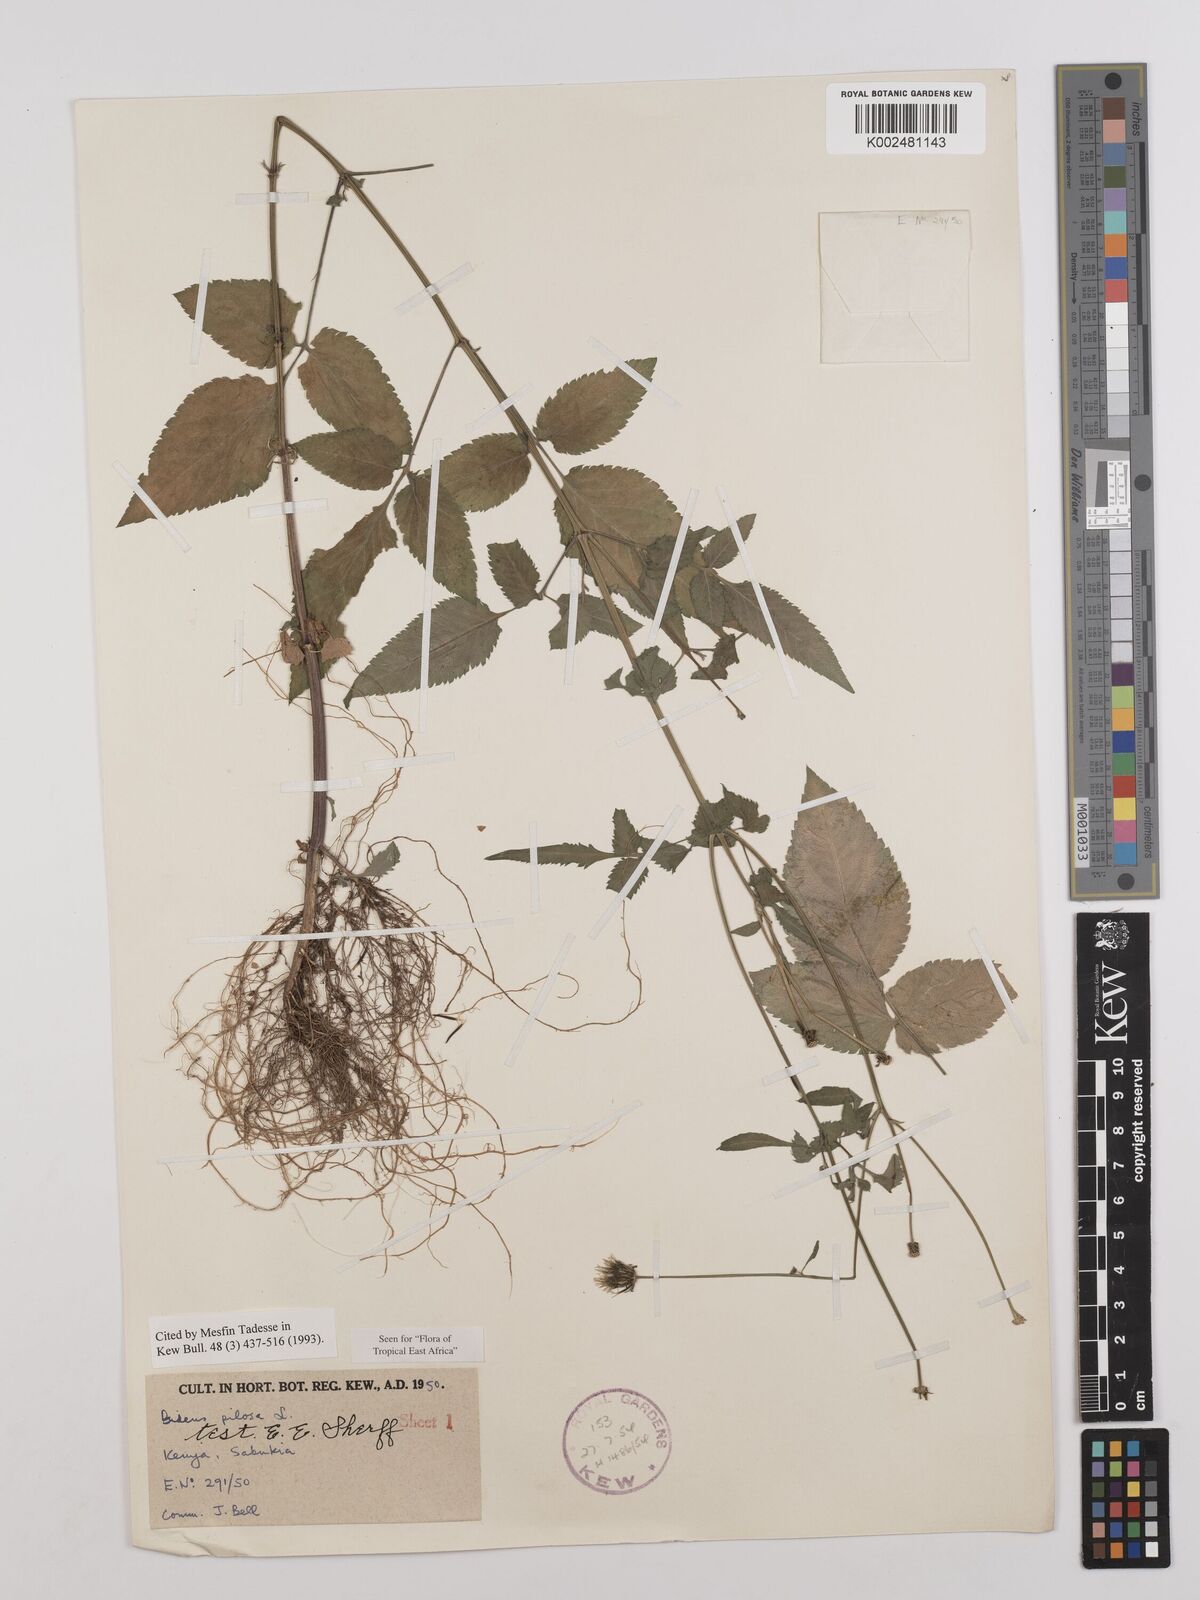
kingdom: Plantae
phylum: Tracheophyta
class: Magnoliopsida
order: Asterales
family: Asteraceae
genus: Bidens
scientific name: Bidens pilosa
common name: Black-jack
